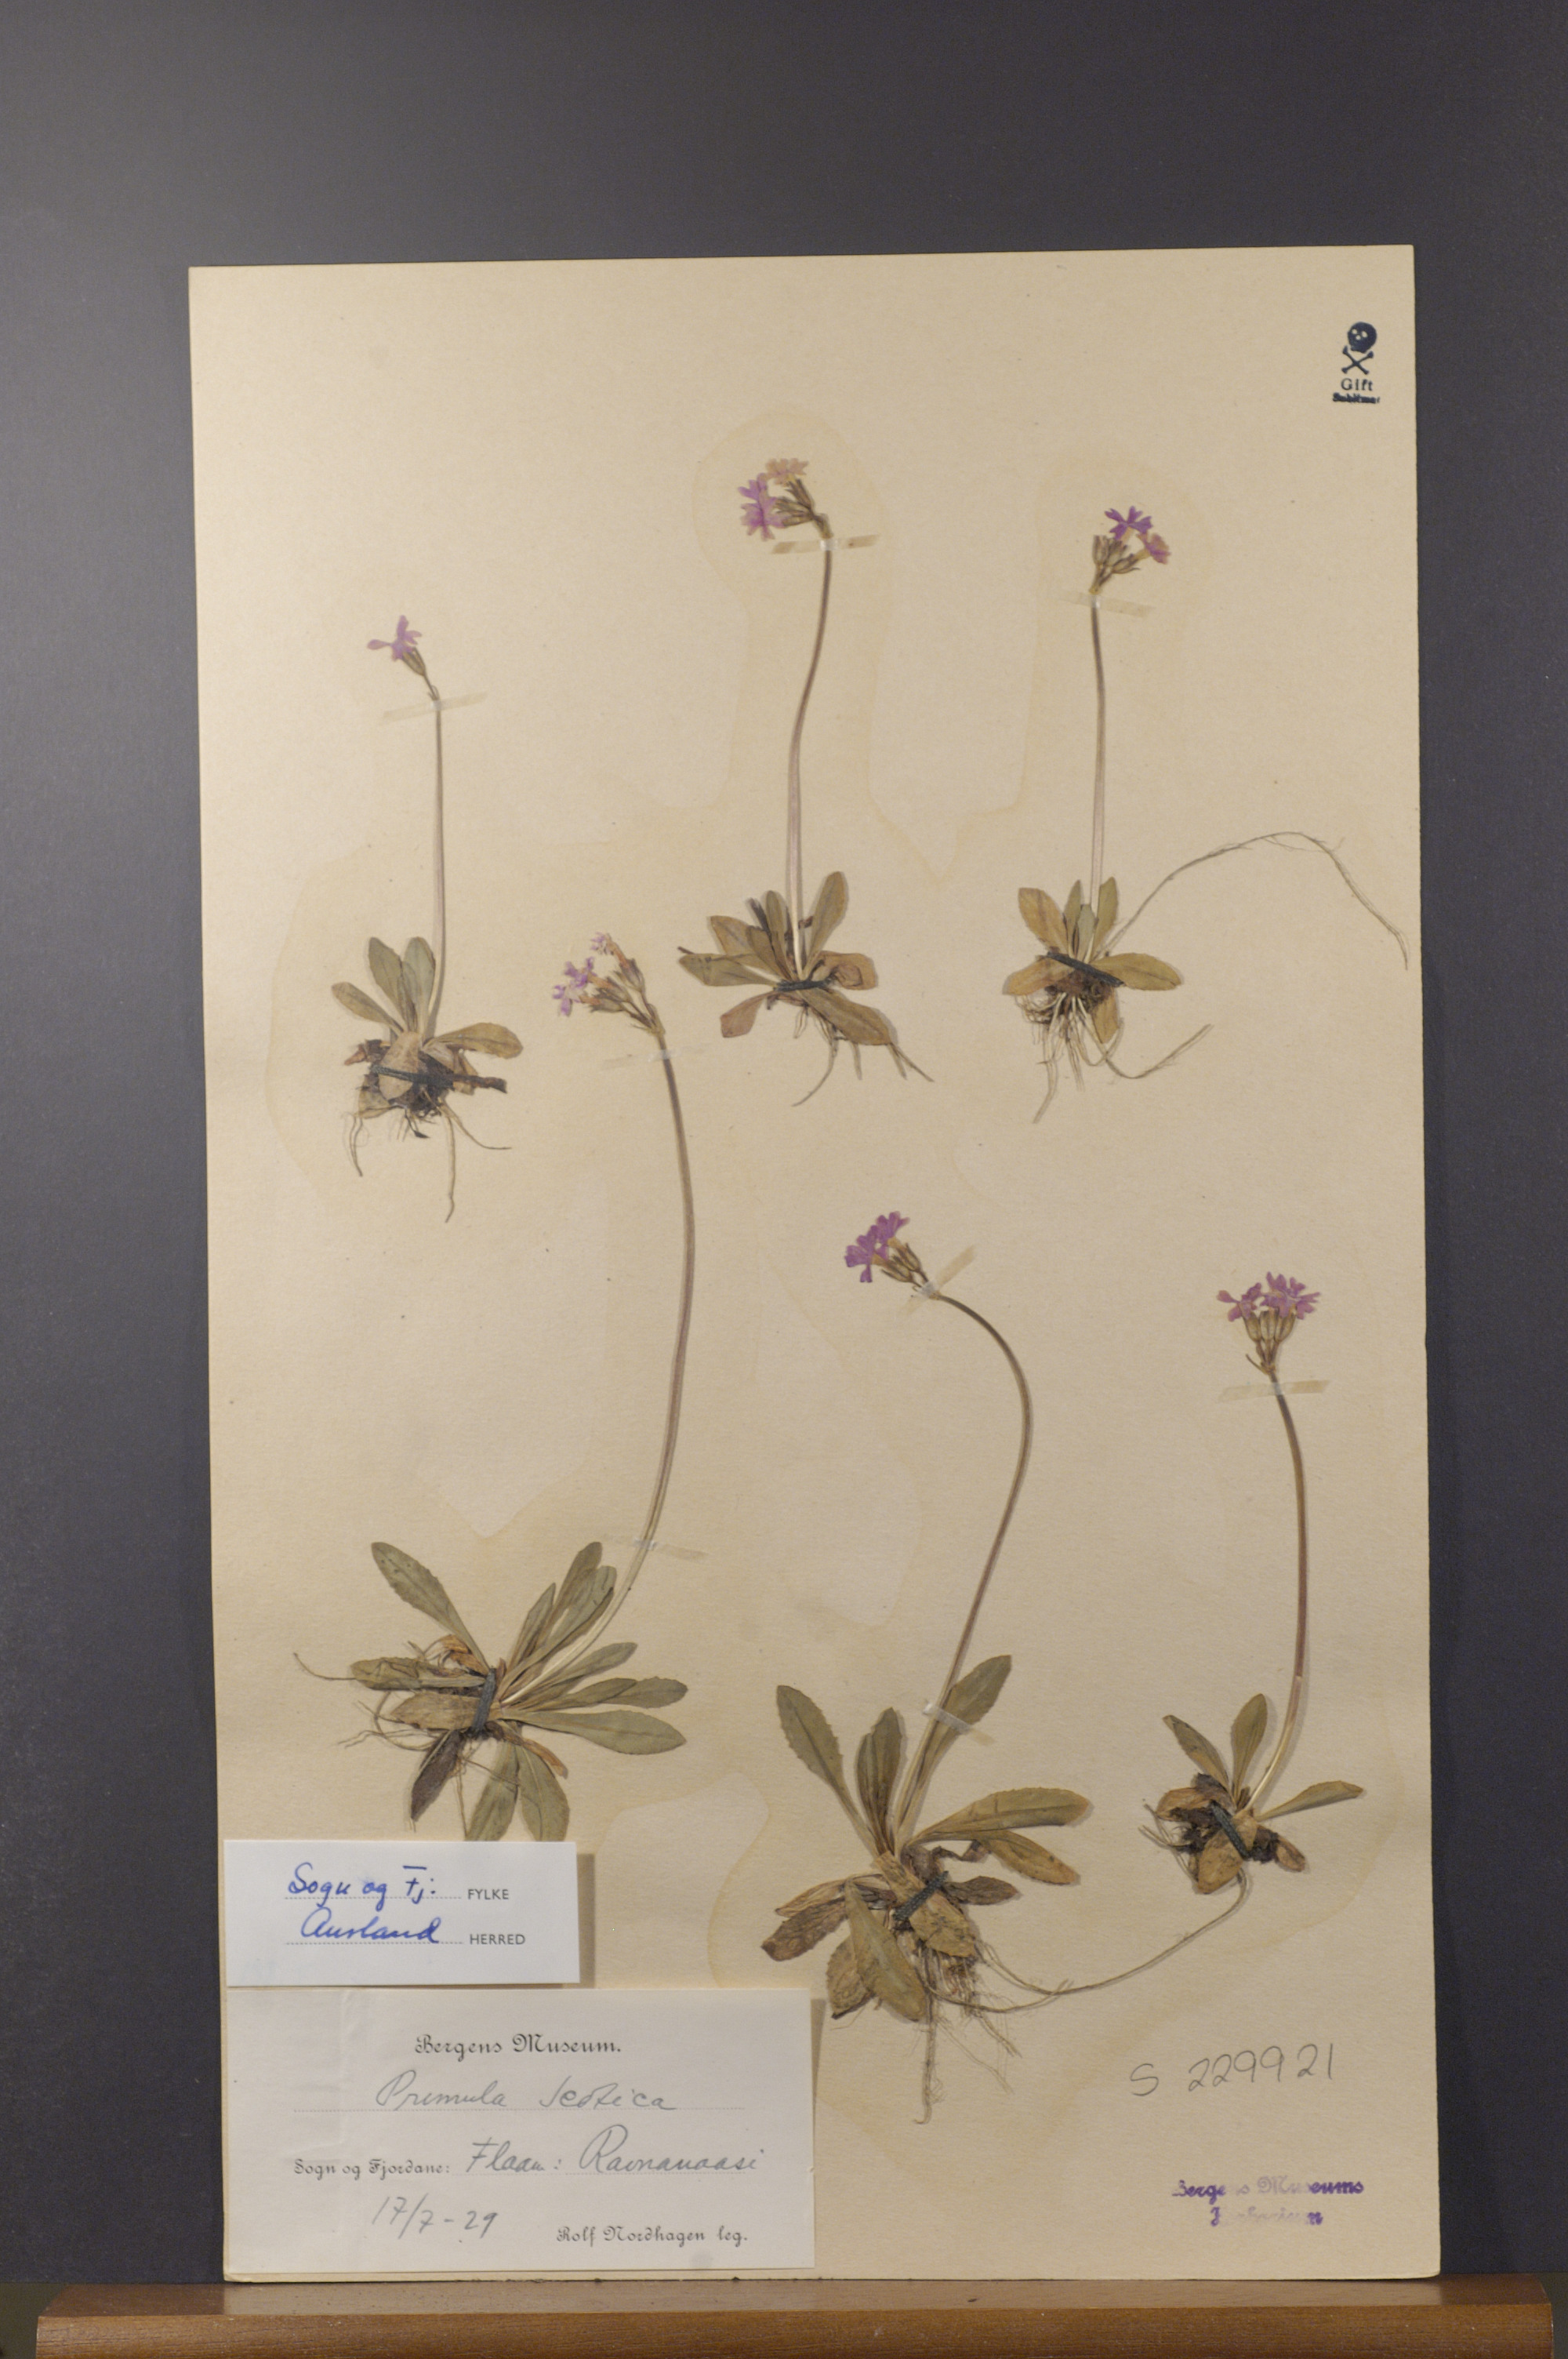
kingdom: Plantae
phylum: Tracheophyta
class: Magnoliopsida
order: Ericales
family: Primulaceae
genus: Primula
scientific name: Primula scotica
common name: Scottish primrose
